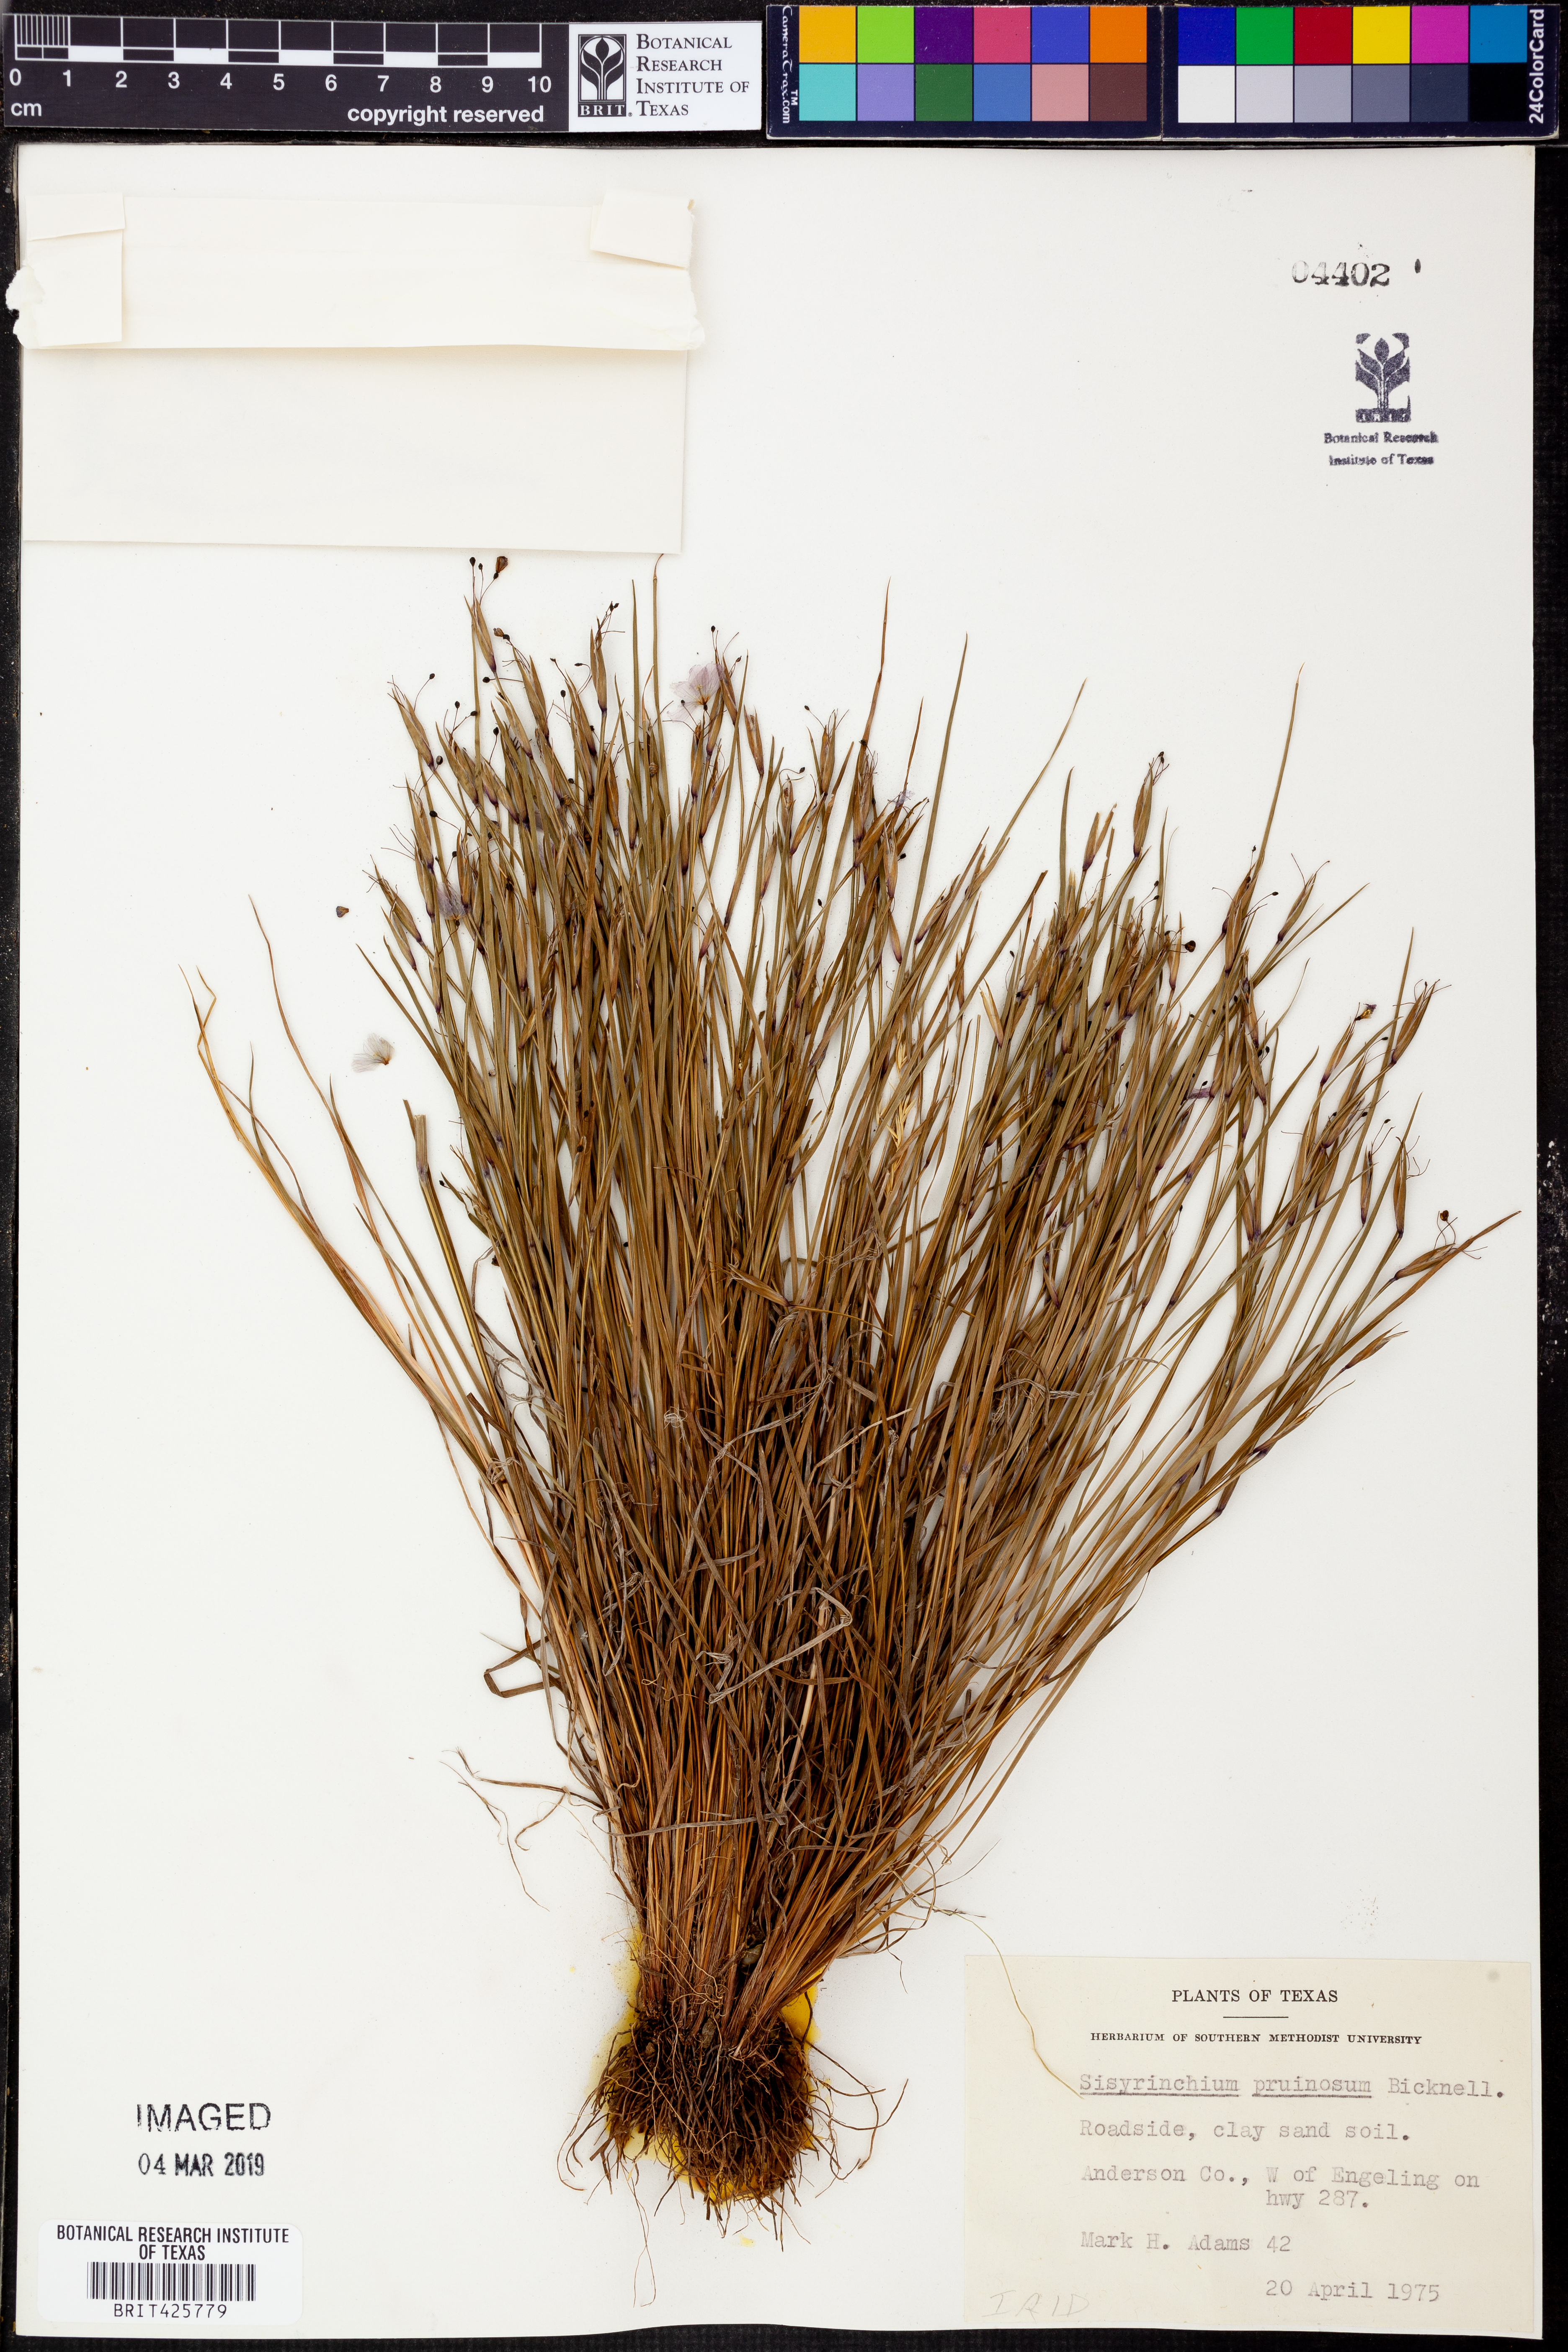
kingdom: Plantae
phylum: Tracheophyta
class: Liliopsida
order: Asparagales
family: Iridaceae
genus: Sisyrinchium
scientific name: Sisyrinchium pruinosum
